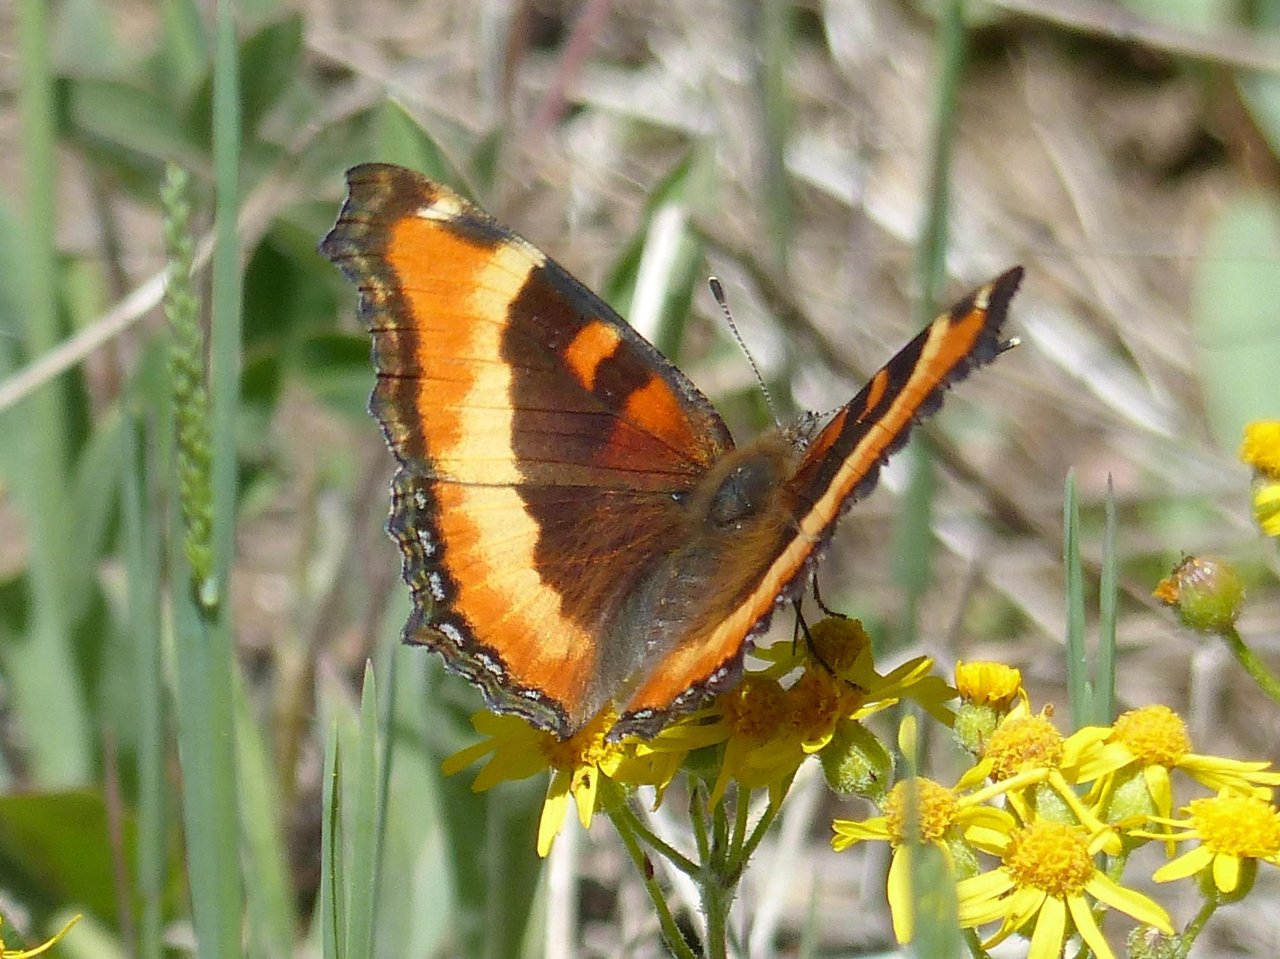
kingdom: Animalia
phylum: Arthropoda
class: Insecta
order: Lepidoptera
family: Nymphalidae
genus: Aglais
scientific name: Aglais milberti
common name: Milbert's Tortoiseshell
